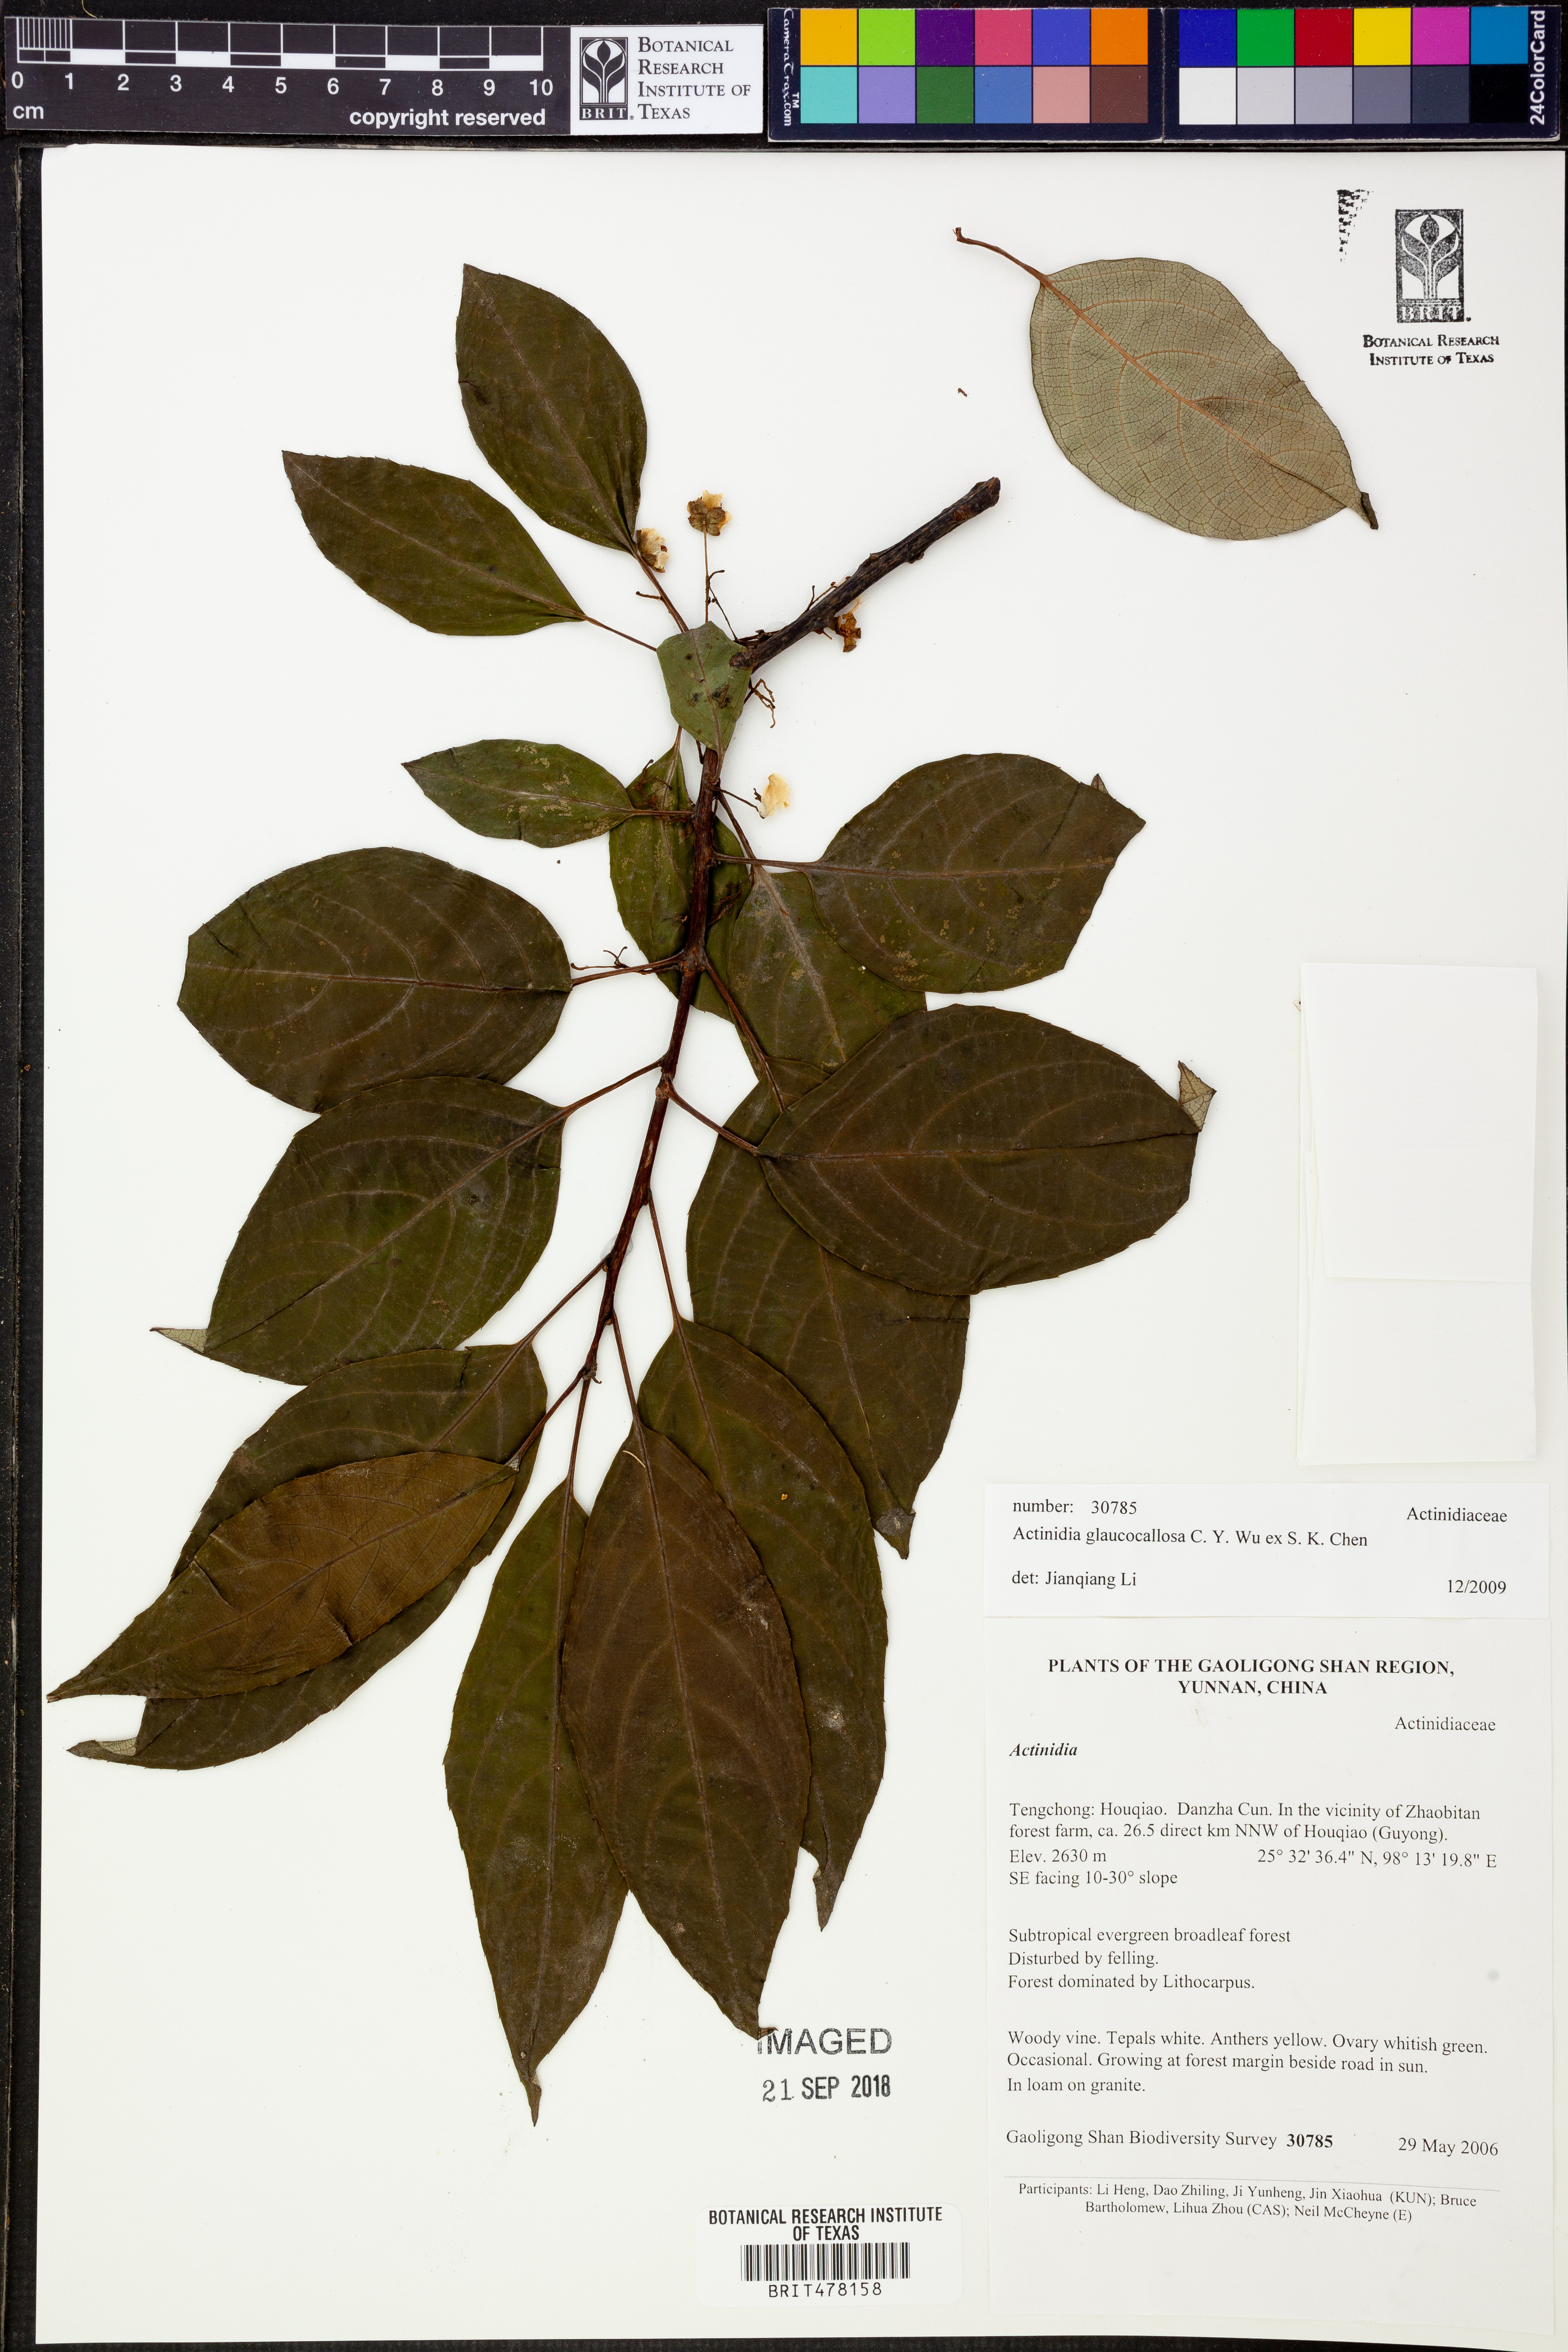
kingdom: Plantae
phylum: Tracheophyta
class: Magnoliopsida
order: Ericales
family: Actinidiaceae
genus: Actinidia
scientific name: Actinidia glaucocallosa
